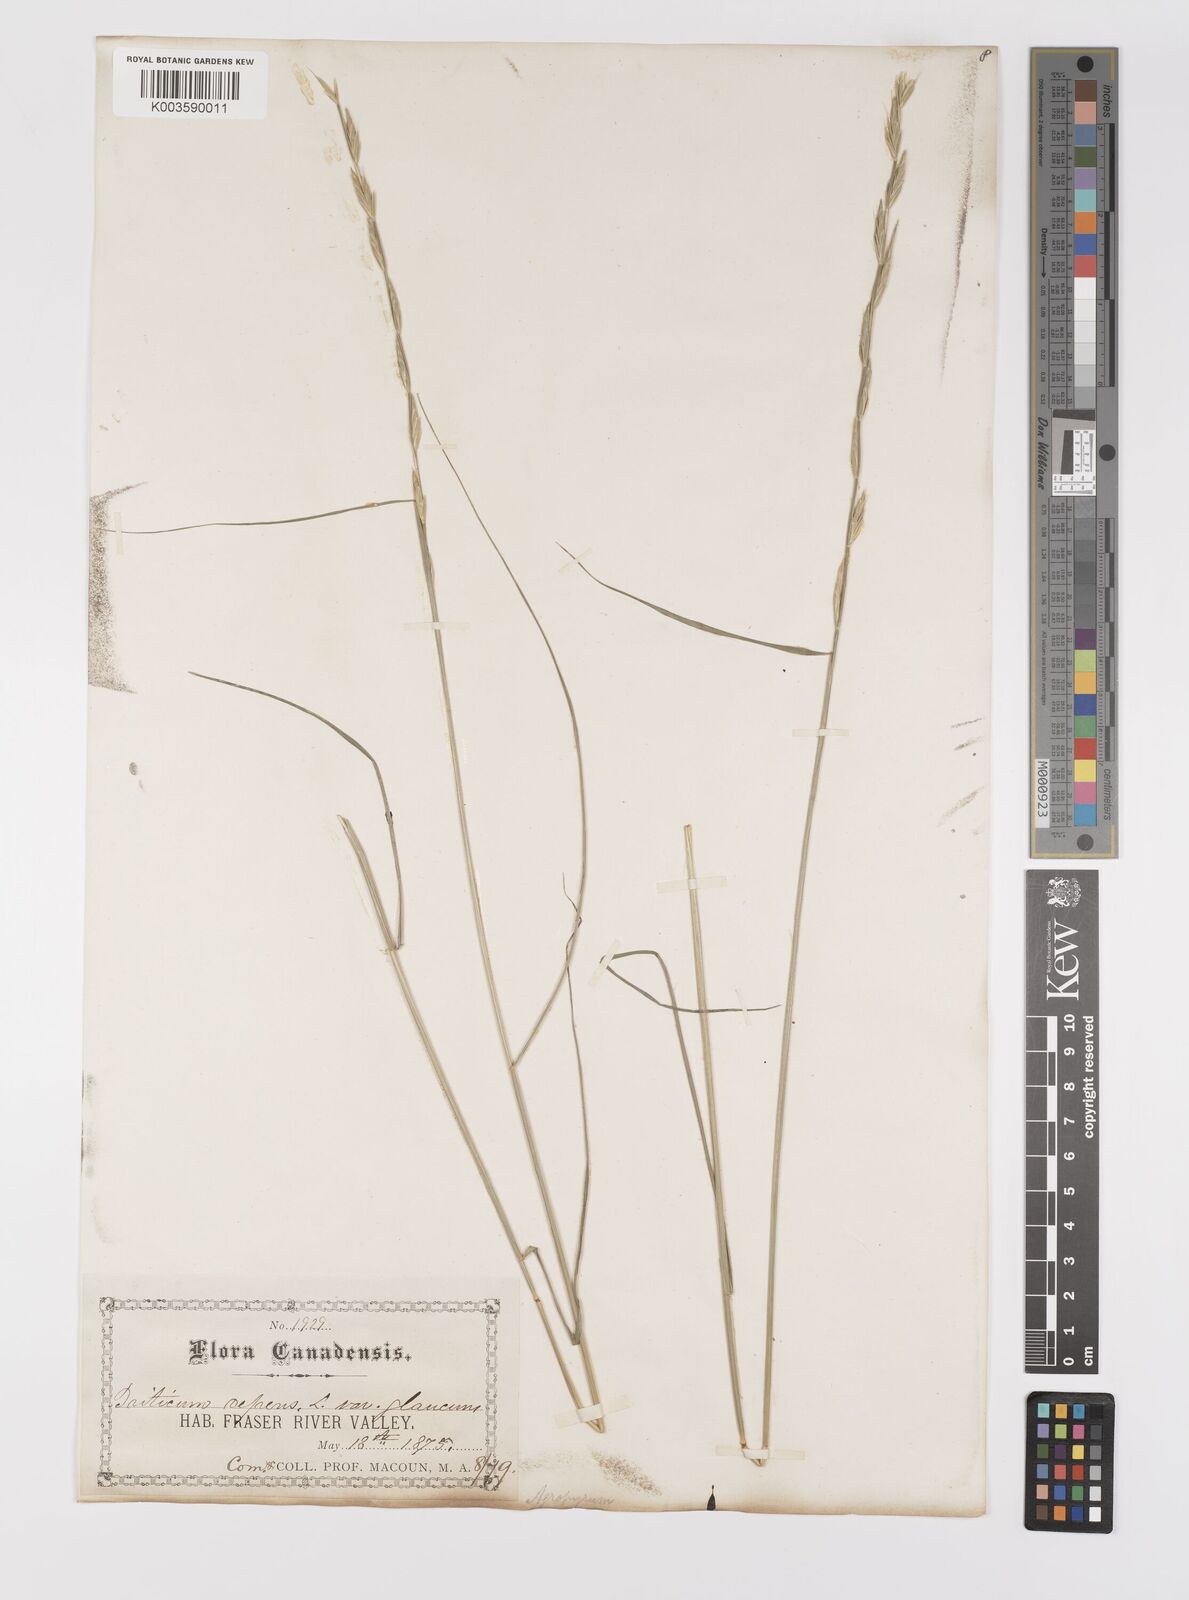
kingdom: Plantae
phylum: Tracheophyta
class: Liliopsida
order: Poales
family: Poaceae
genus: Elymus
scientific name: Elymus repens
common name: Quackgrass
